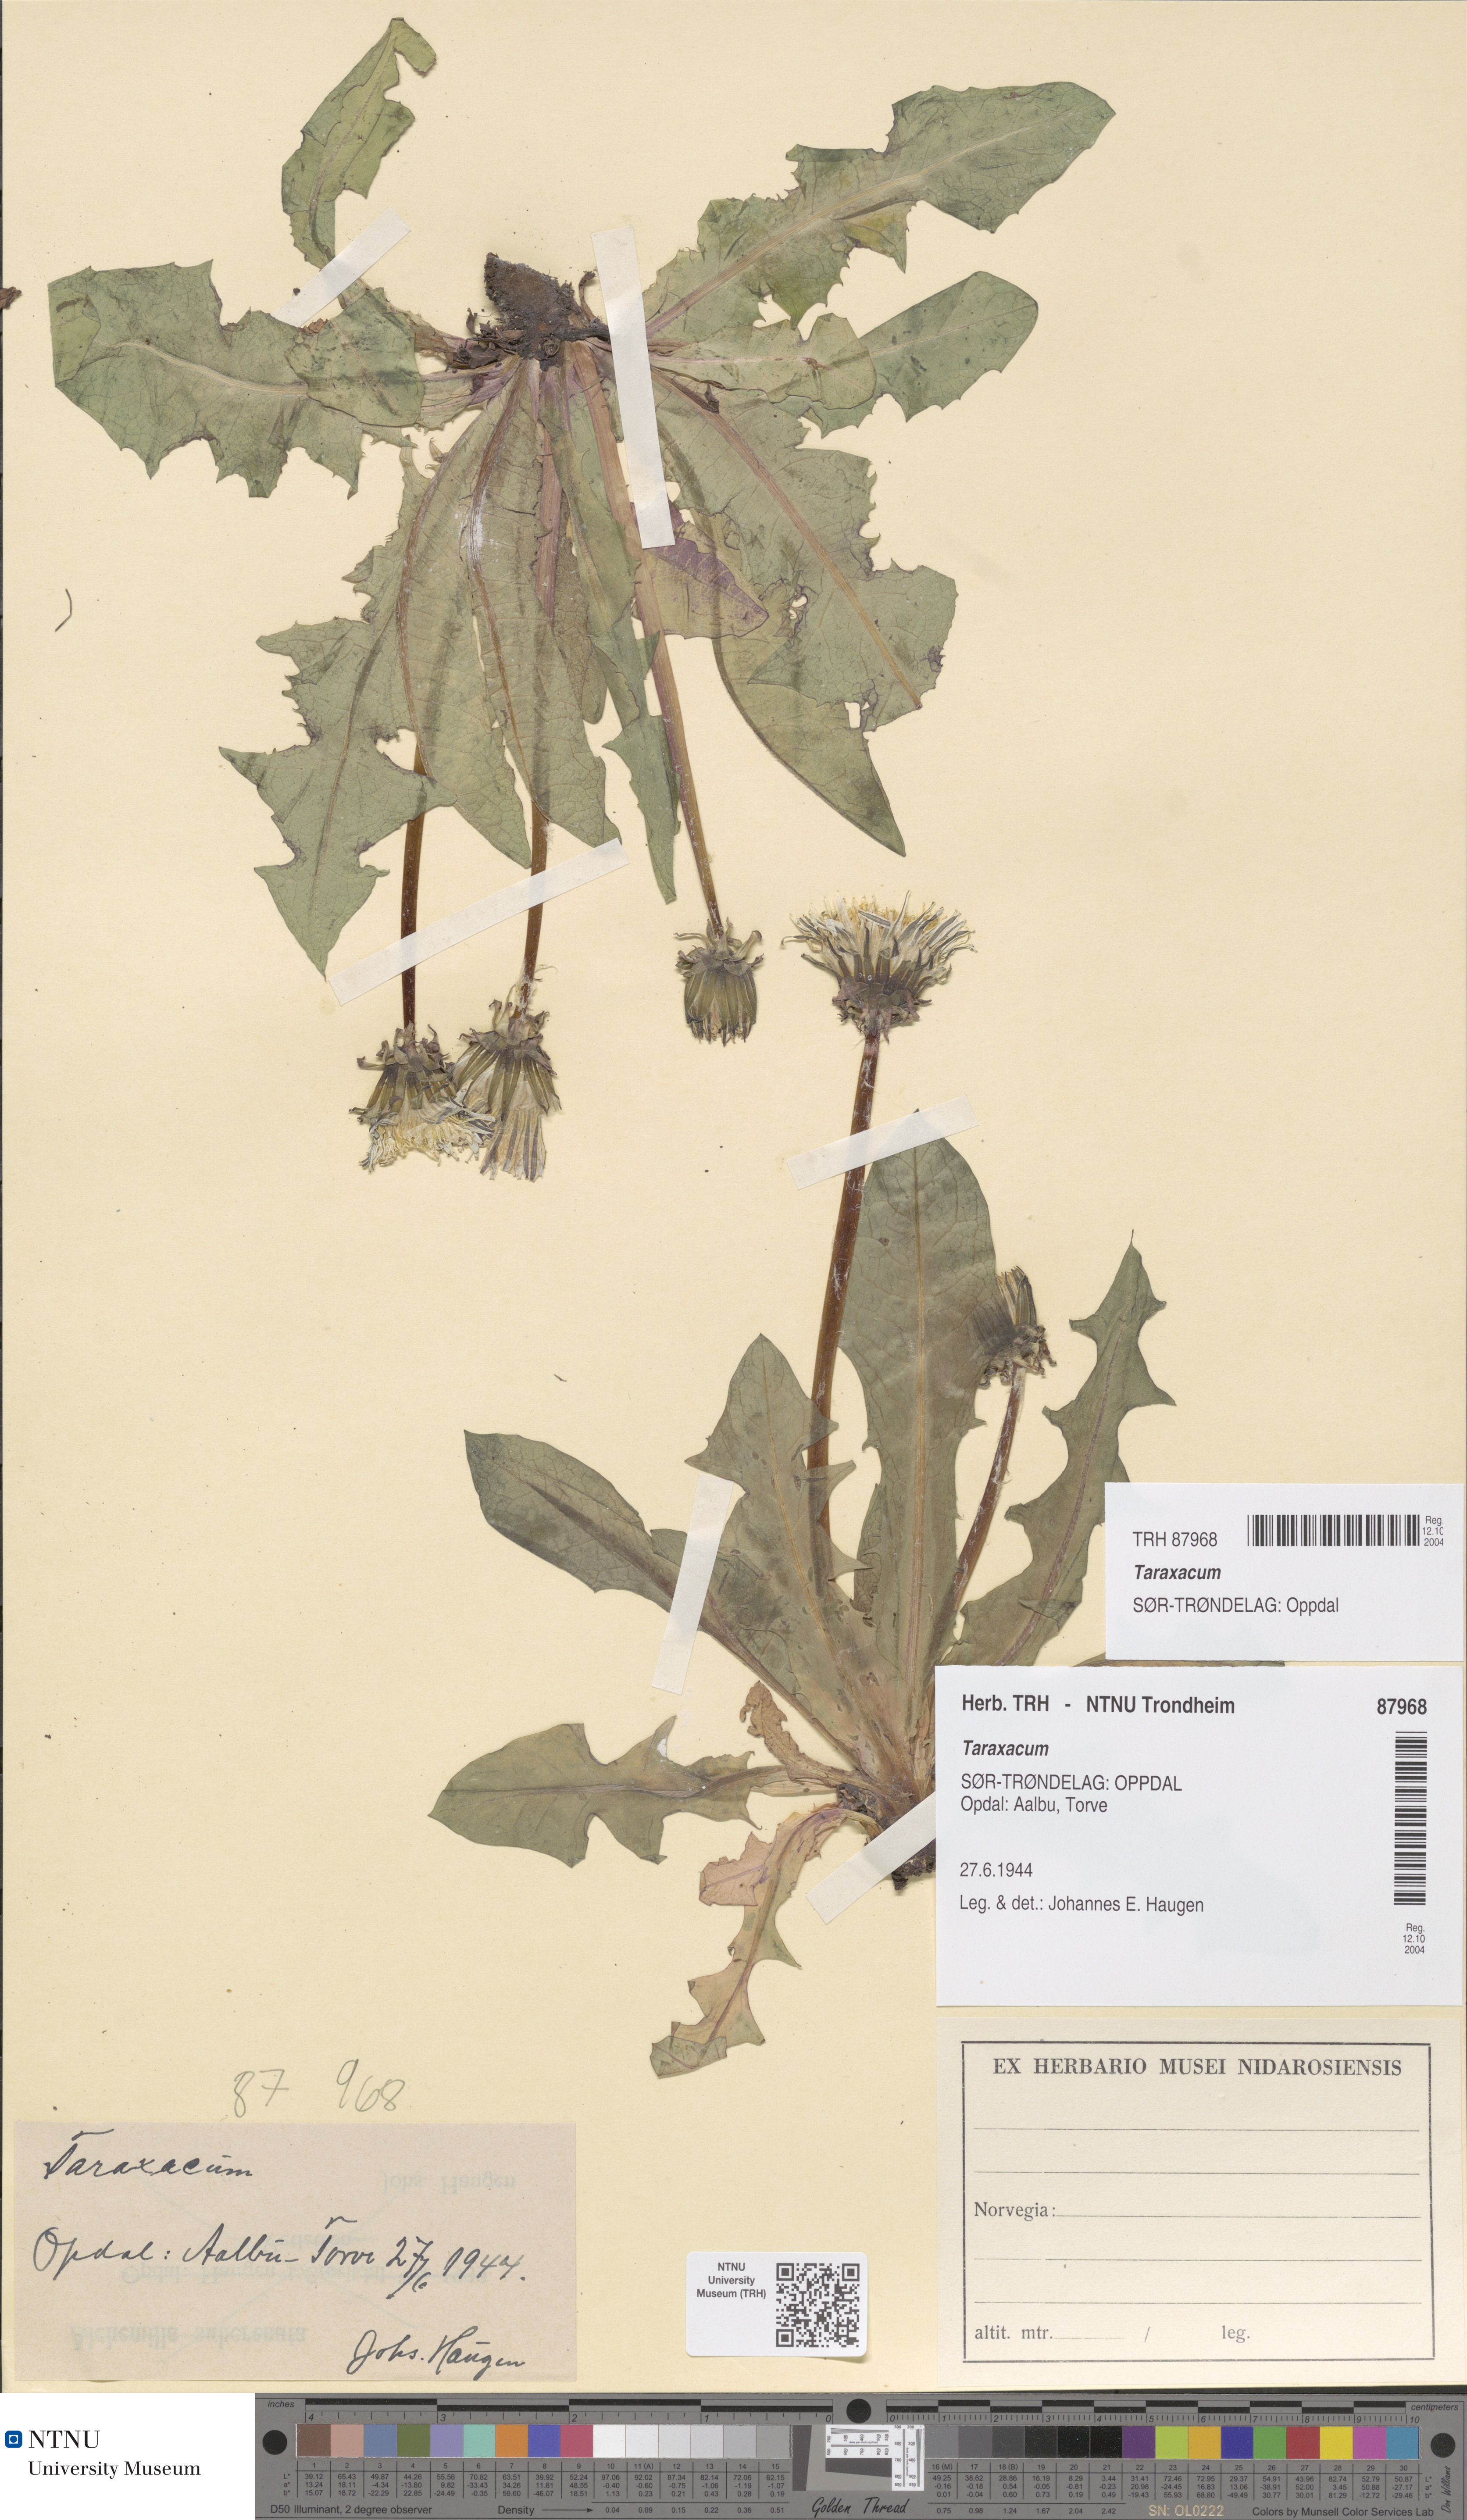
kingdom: Plantae
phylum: Tracheophyta
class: Magnoliopsida
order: Asterales
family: Asteraceae
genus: Taraxacum
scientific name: Taraxacum
